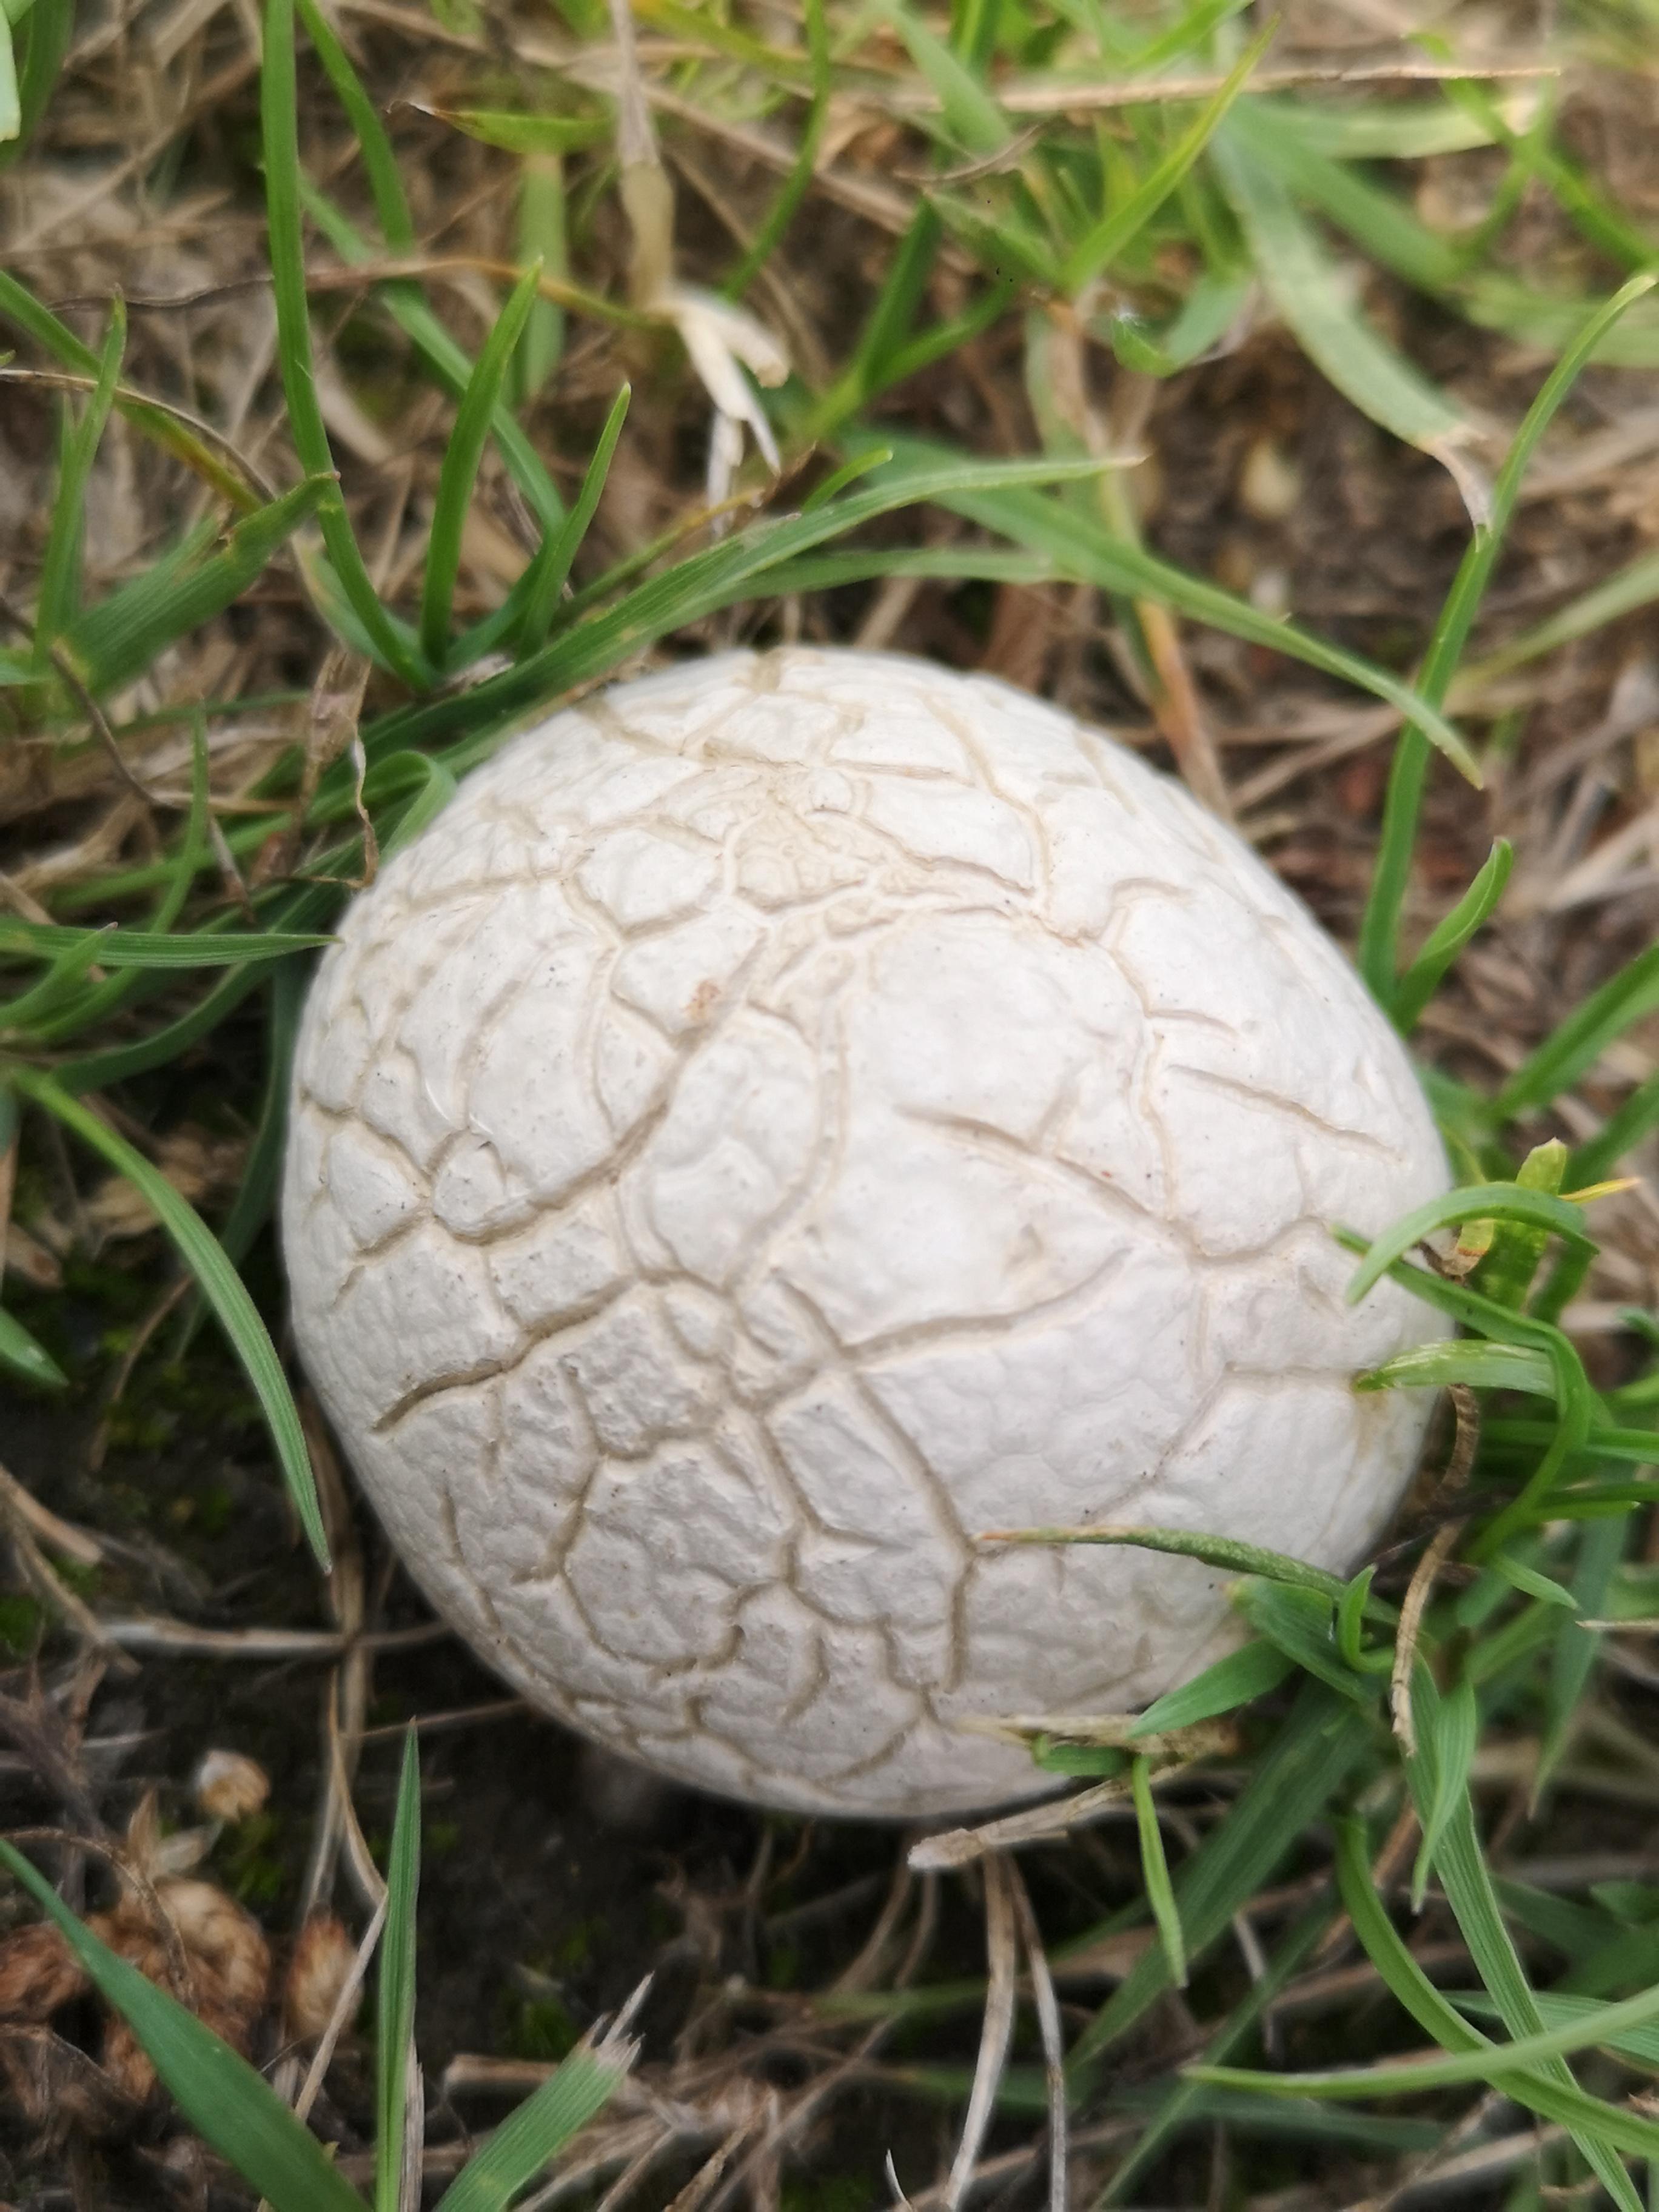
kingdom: Fungi
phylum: Basidiomycota
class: Agaricomycetes
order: Agaricales
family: Lycoperdaceae
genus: Bovista
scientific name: Bovista plumbea
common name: blygrå bovist
